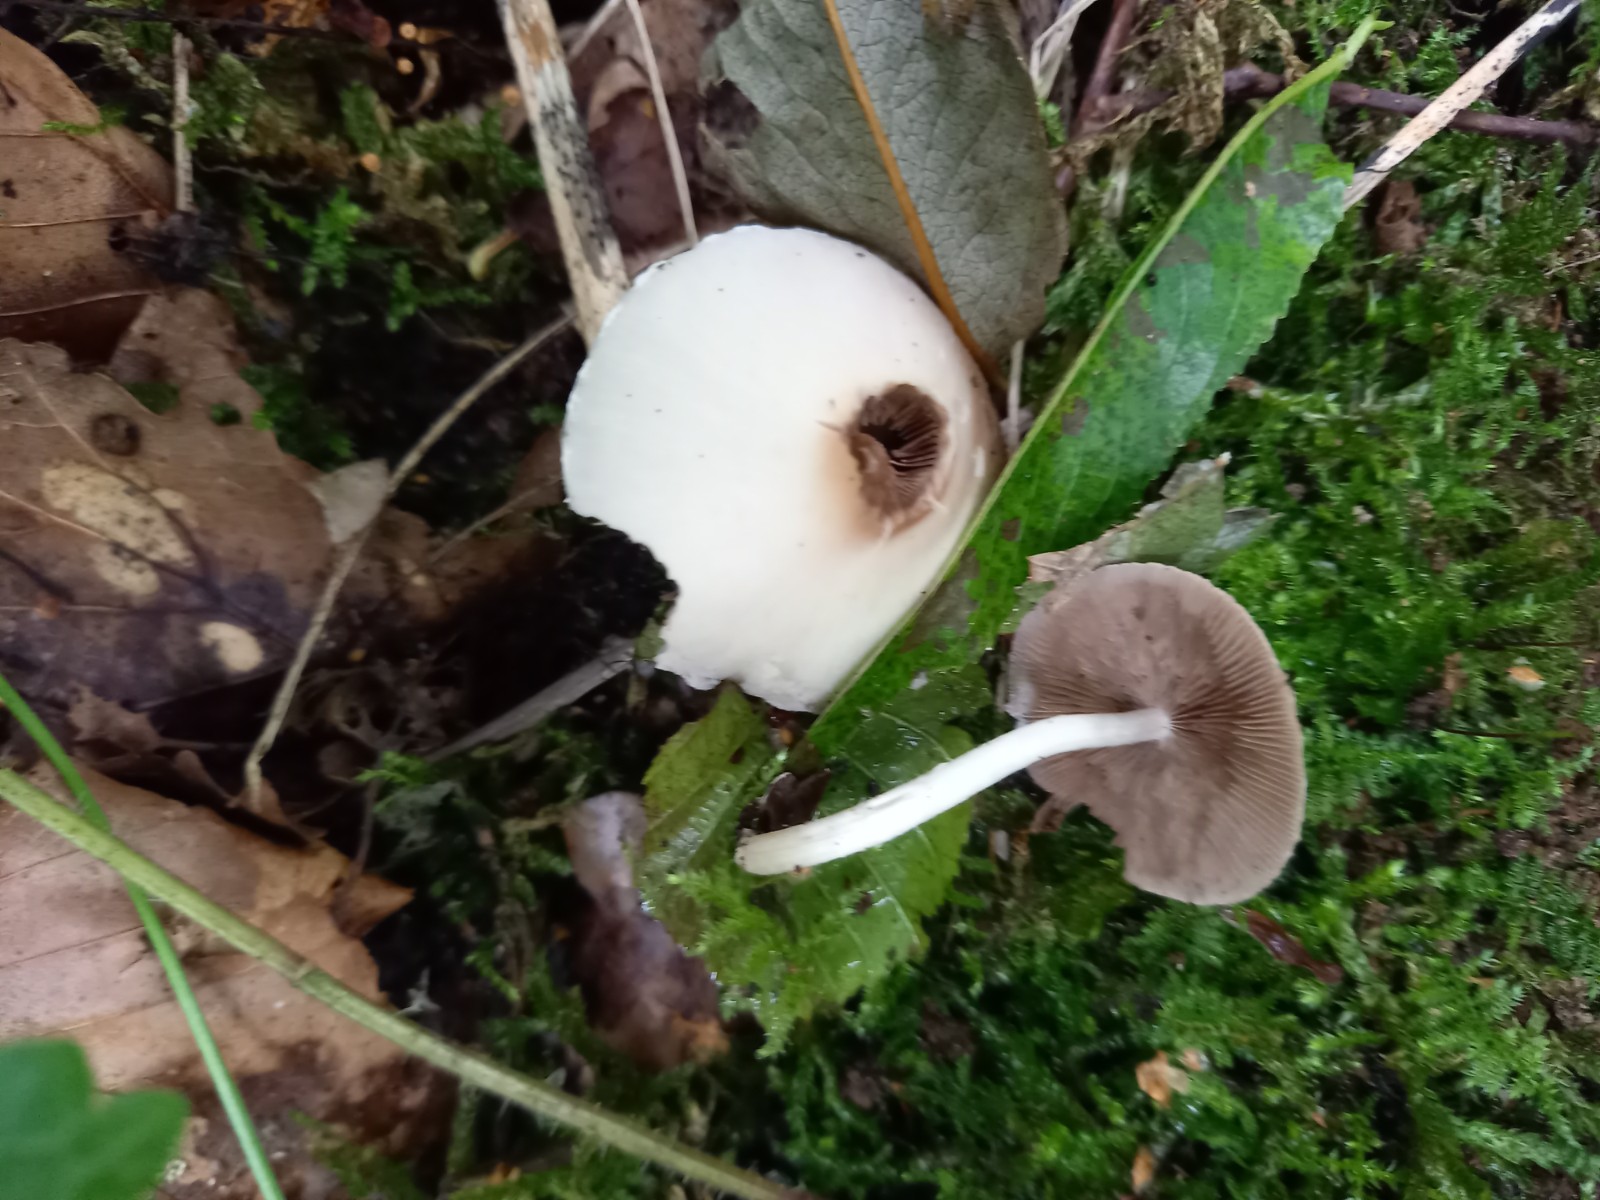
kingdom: Fungi
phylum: Basidiomycota
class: Agaricomycetes
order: Agaricales
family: Psathyrellaceae
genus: Candolleomyces
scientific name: Candolleomyces candolleanus
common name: Candolles mørkhat
